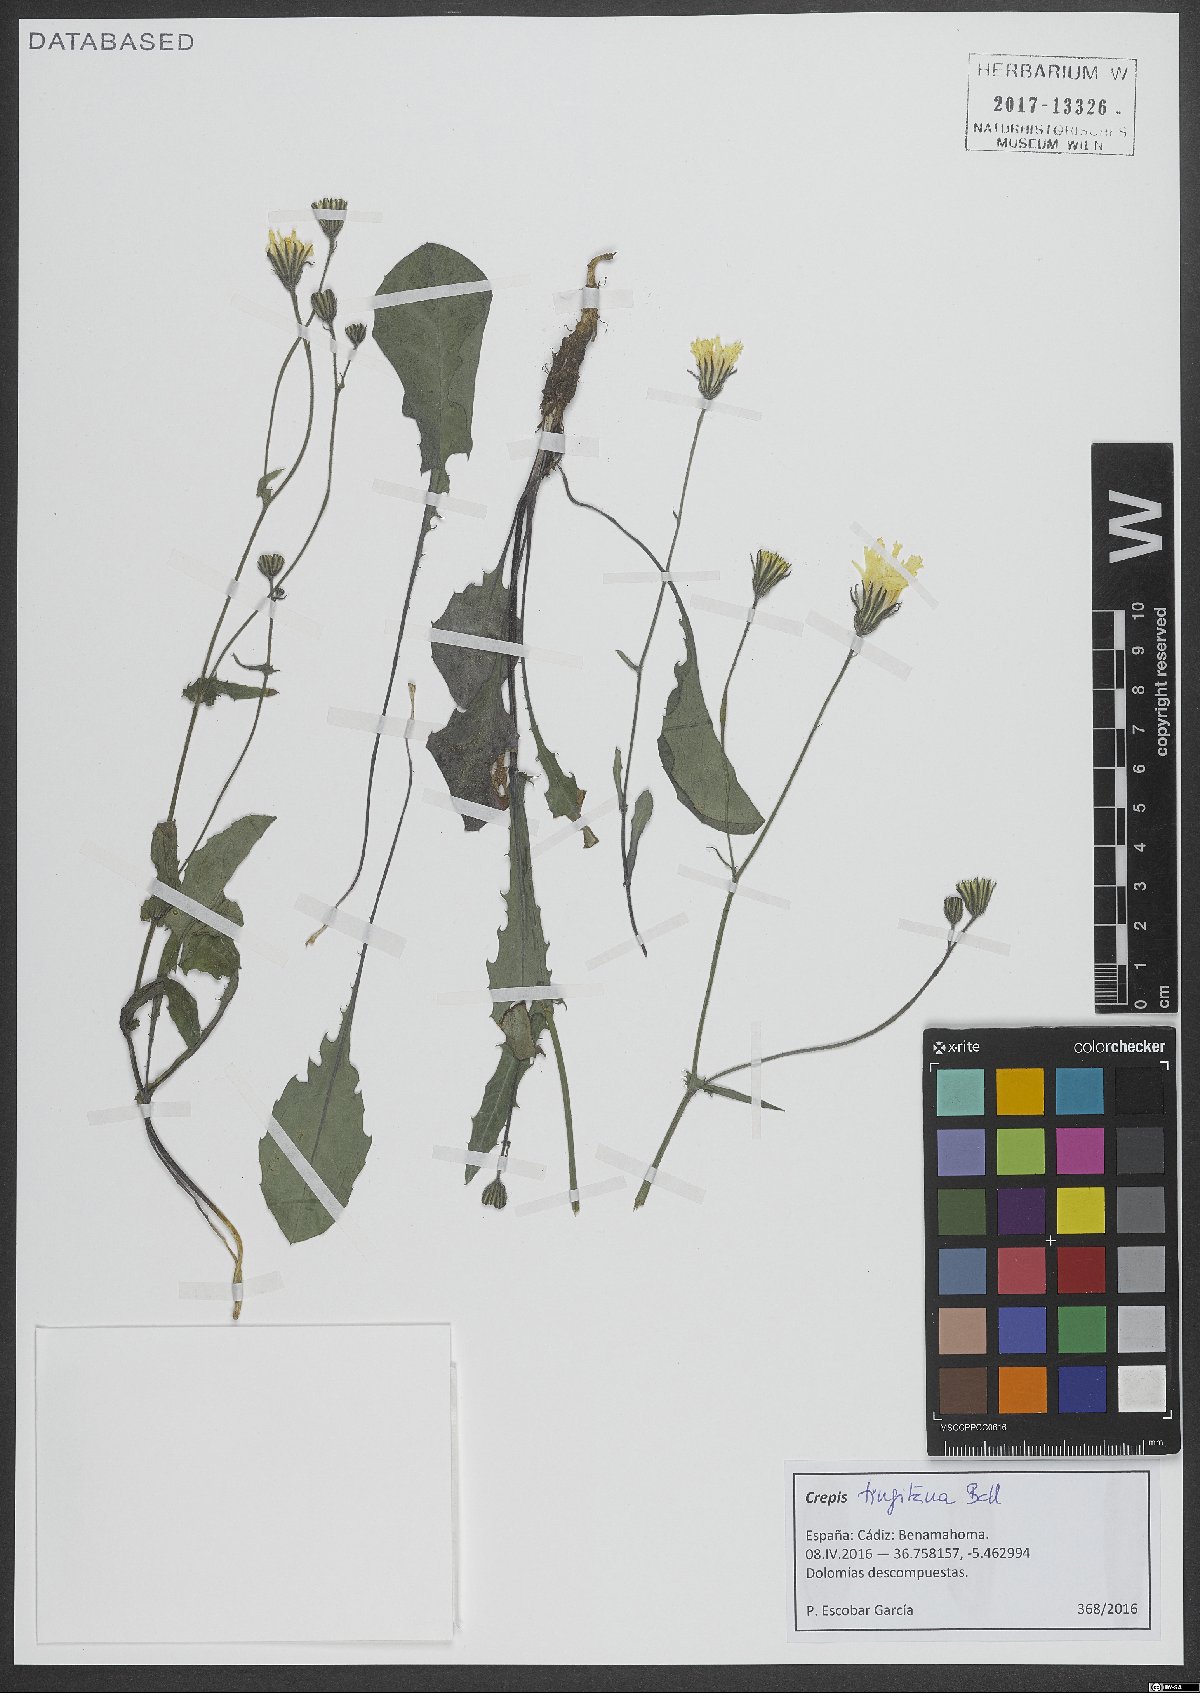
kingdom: Plantae
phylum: Tracheophyta
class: Magnoliopsida
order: Asterales
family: Asteraceae
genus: Crepis
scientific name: Crepis tingitana
